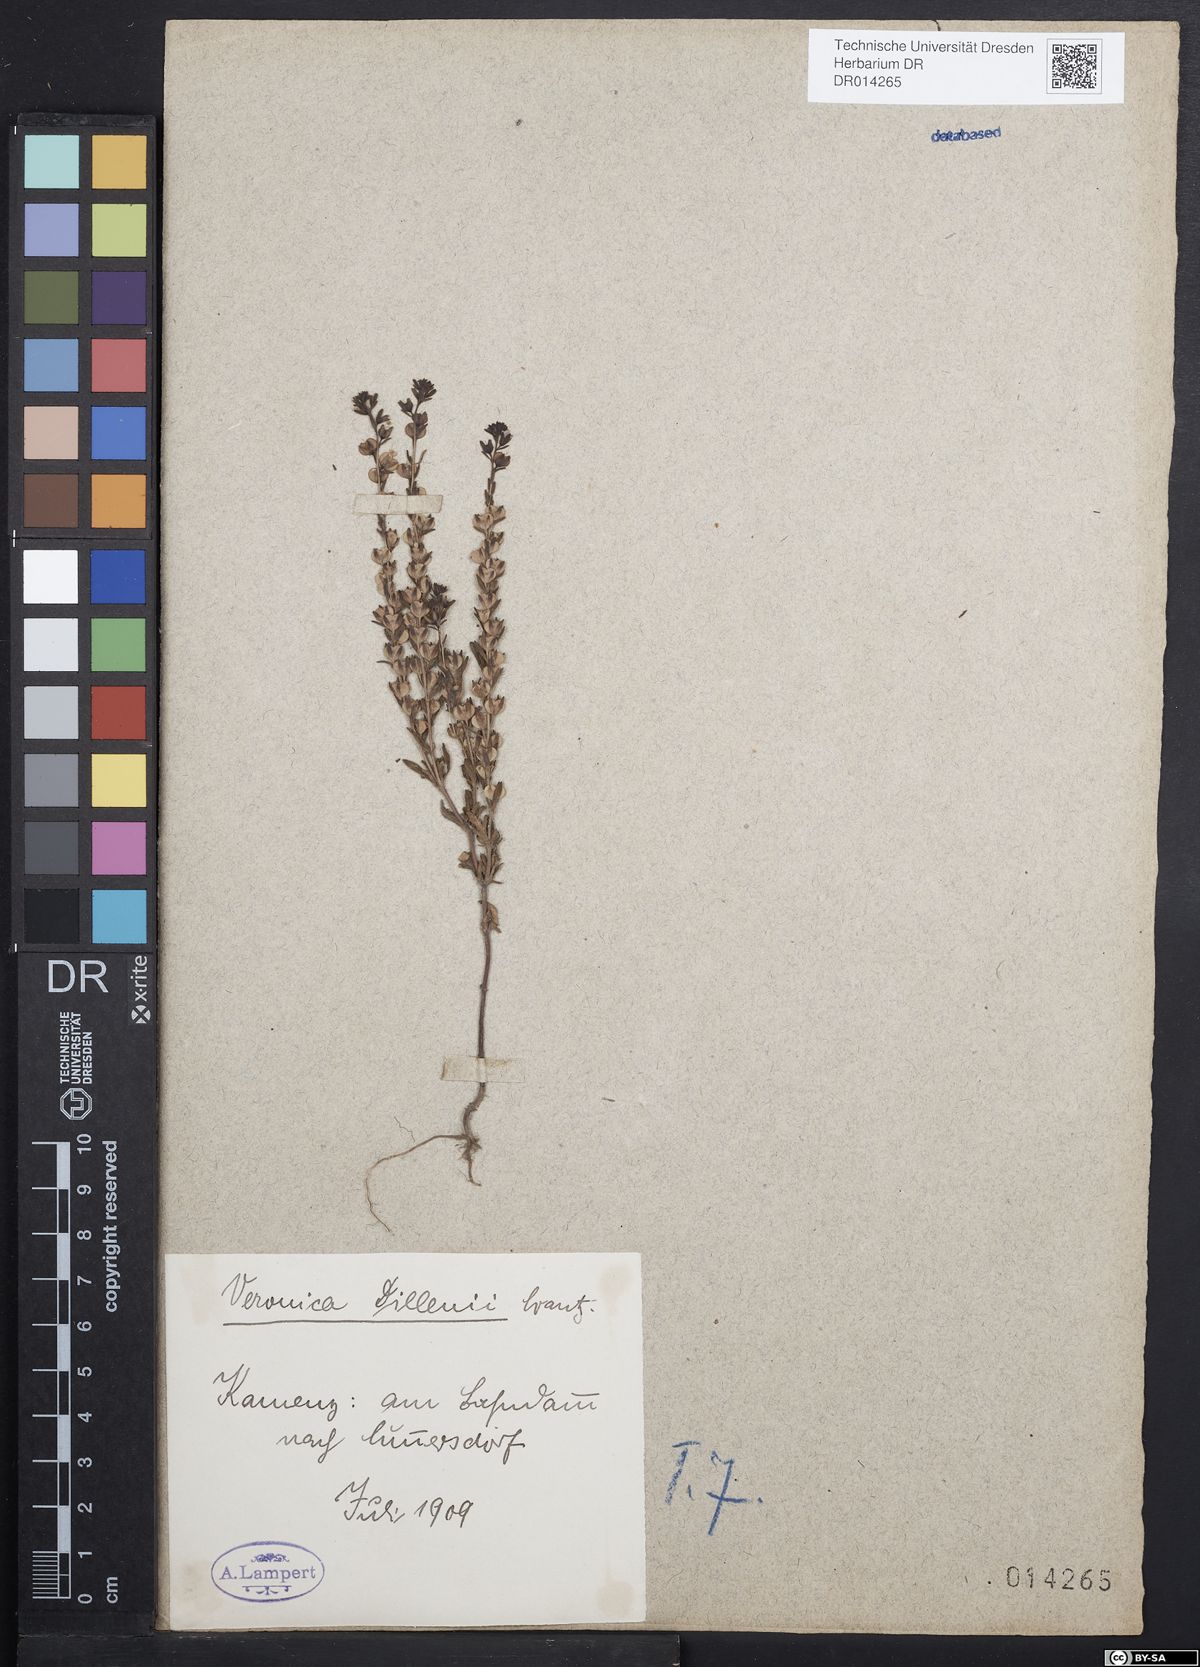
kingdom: Plantae
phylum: Tracheophyta
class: Magnoliopsida
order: Lamiales
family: Plantaginaceae
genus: Veronica
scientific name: Veronica dillenii
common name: Dillenius' speedwell
